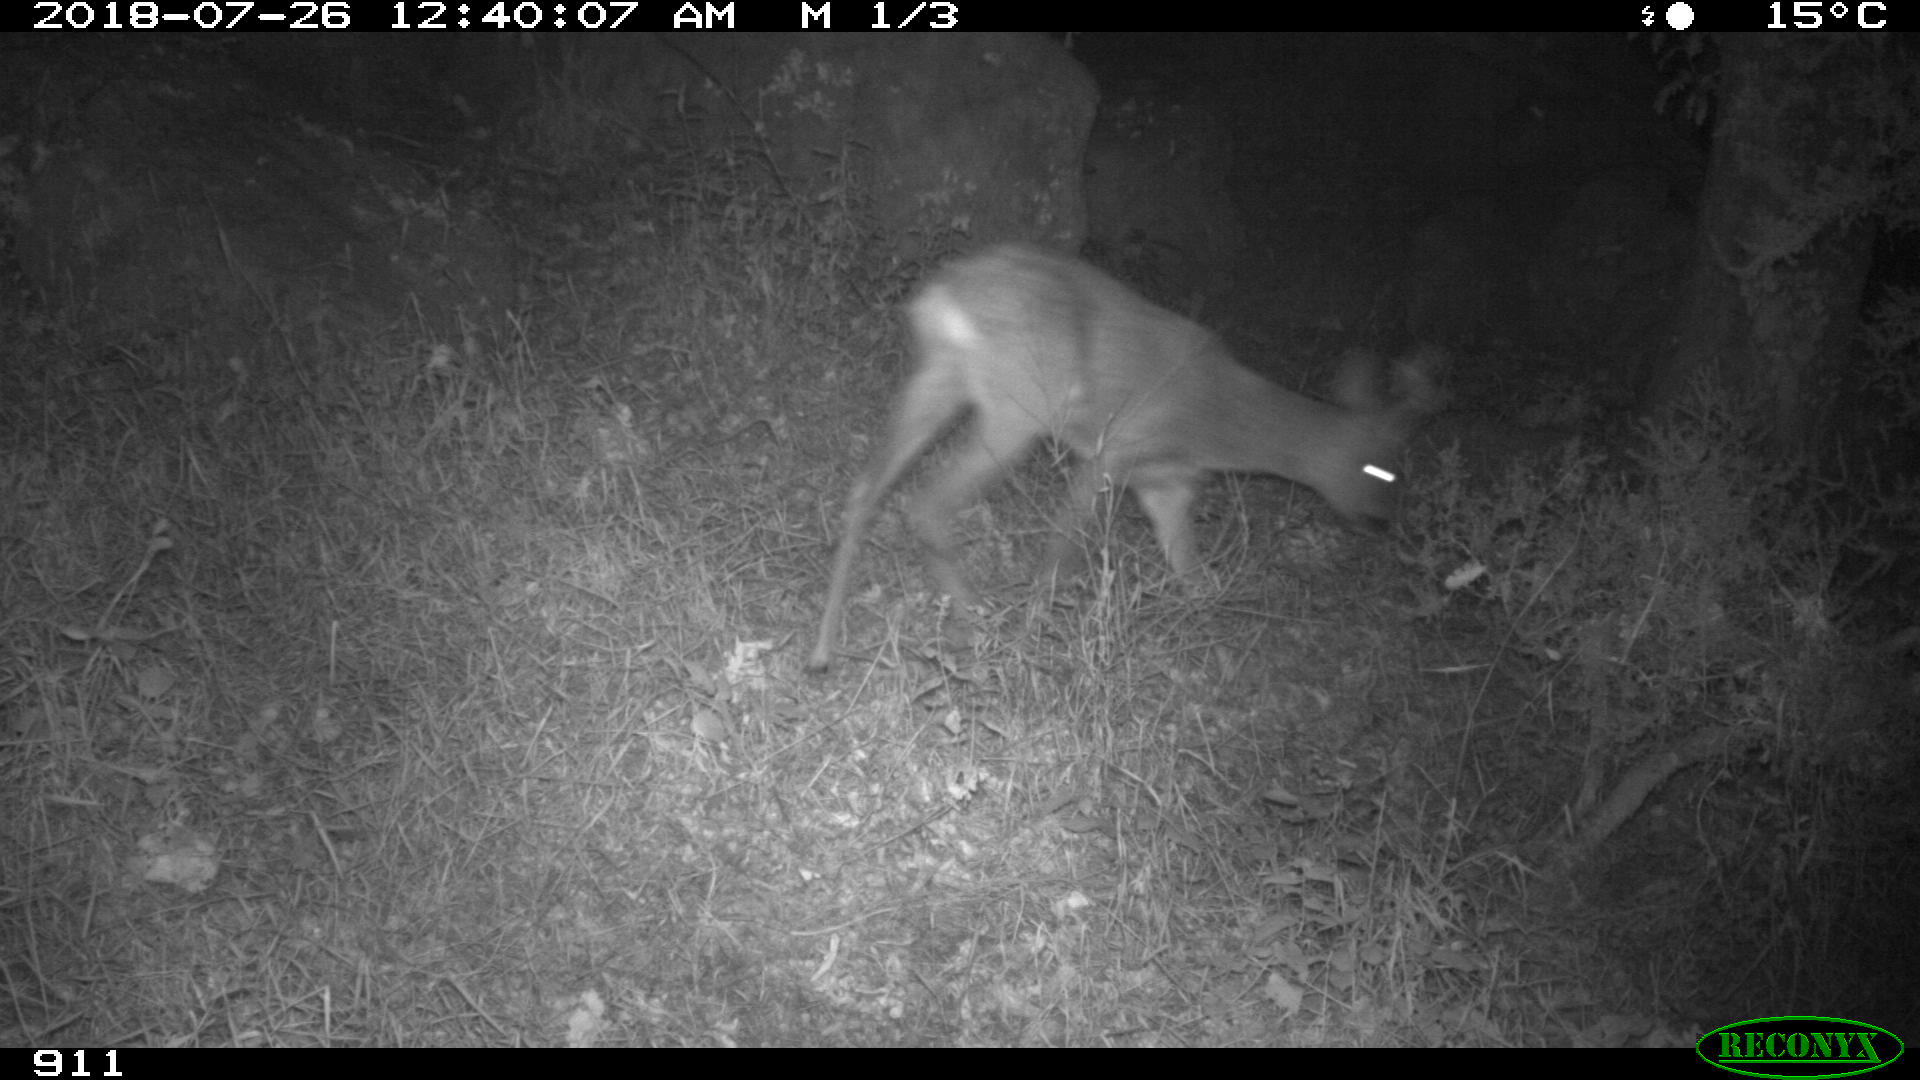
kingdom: Animalia
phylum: Chordata
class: Mammalia
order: Artiodactyla
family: Cervidae
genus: Capreolus
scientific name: Capreolus capreolus
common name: Western roe deer
